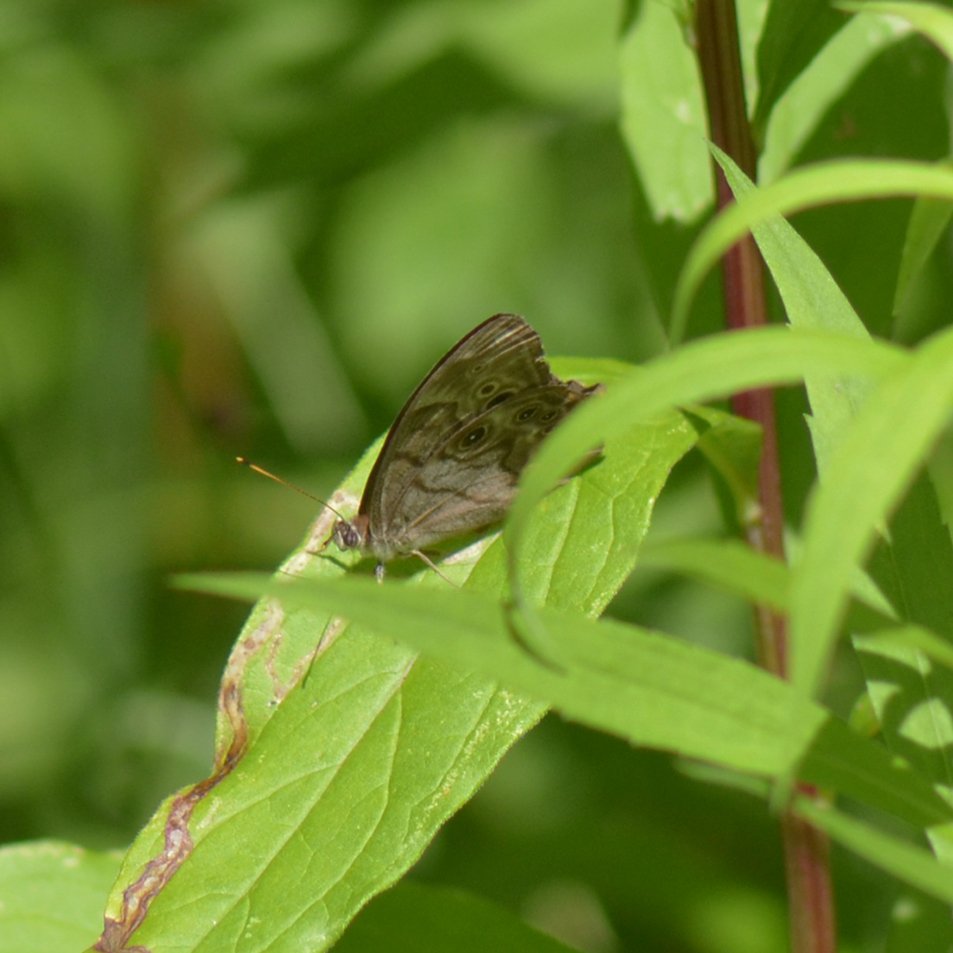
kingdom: Animalia
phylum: Arthropoda
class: Insecta
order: Lepidoptera
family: Nymphalidae
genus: Lethe
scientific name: Lethe anthedon
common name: Northern Pearly-Eye
